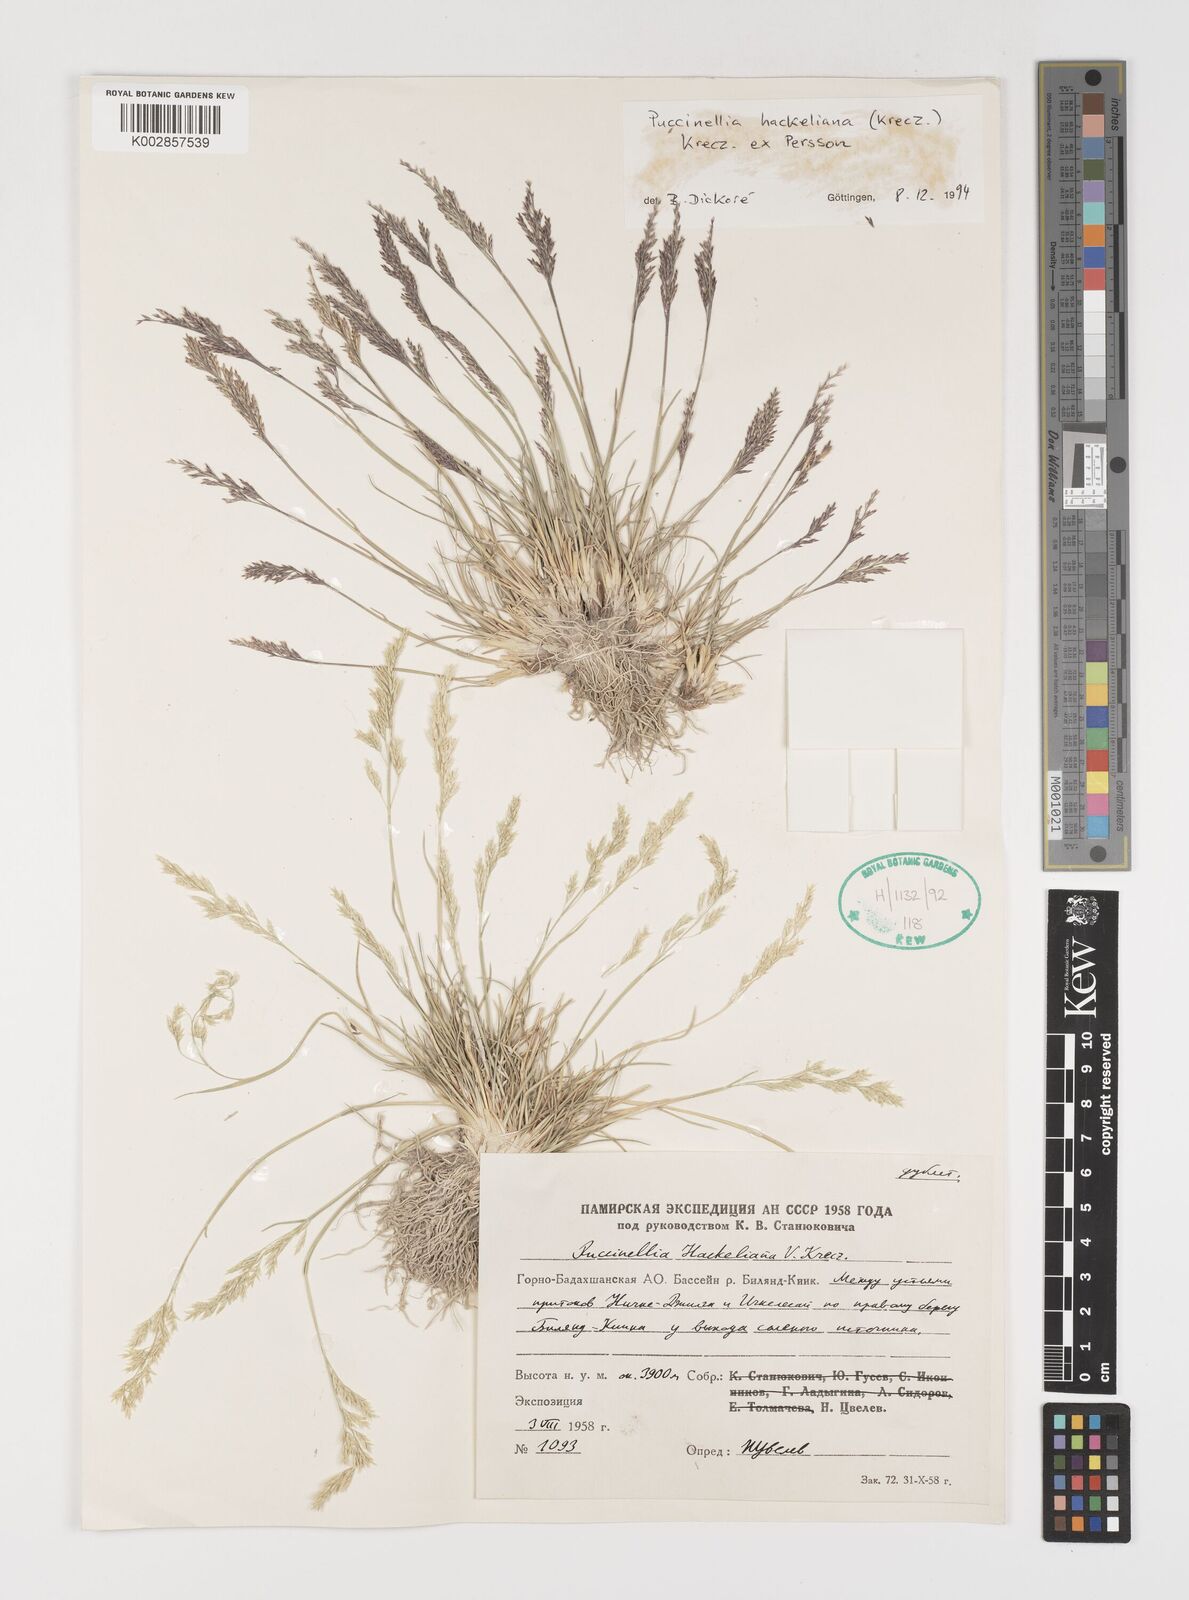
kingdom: Plantae
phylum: Tracheophyta
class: Liliopsida
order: Poales
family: Poaceae
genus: Puccinellia
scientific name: Puccinellia hackeliana
